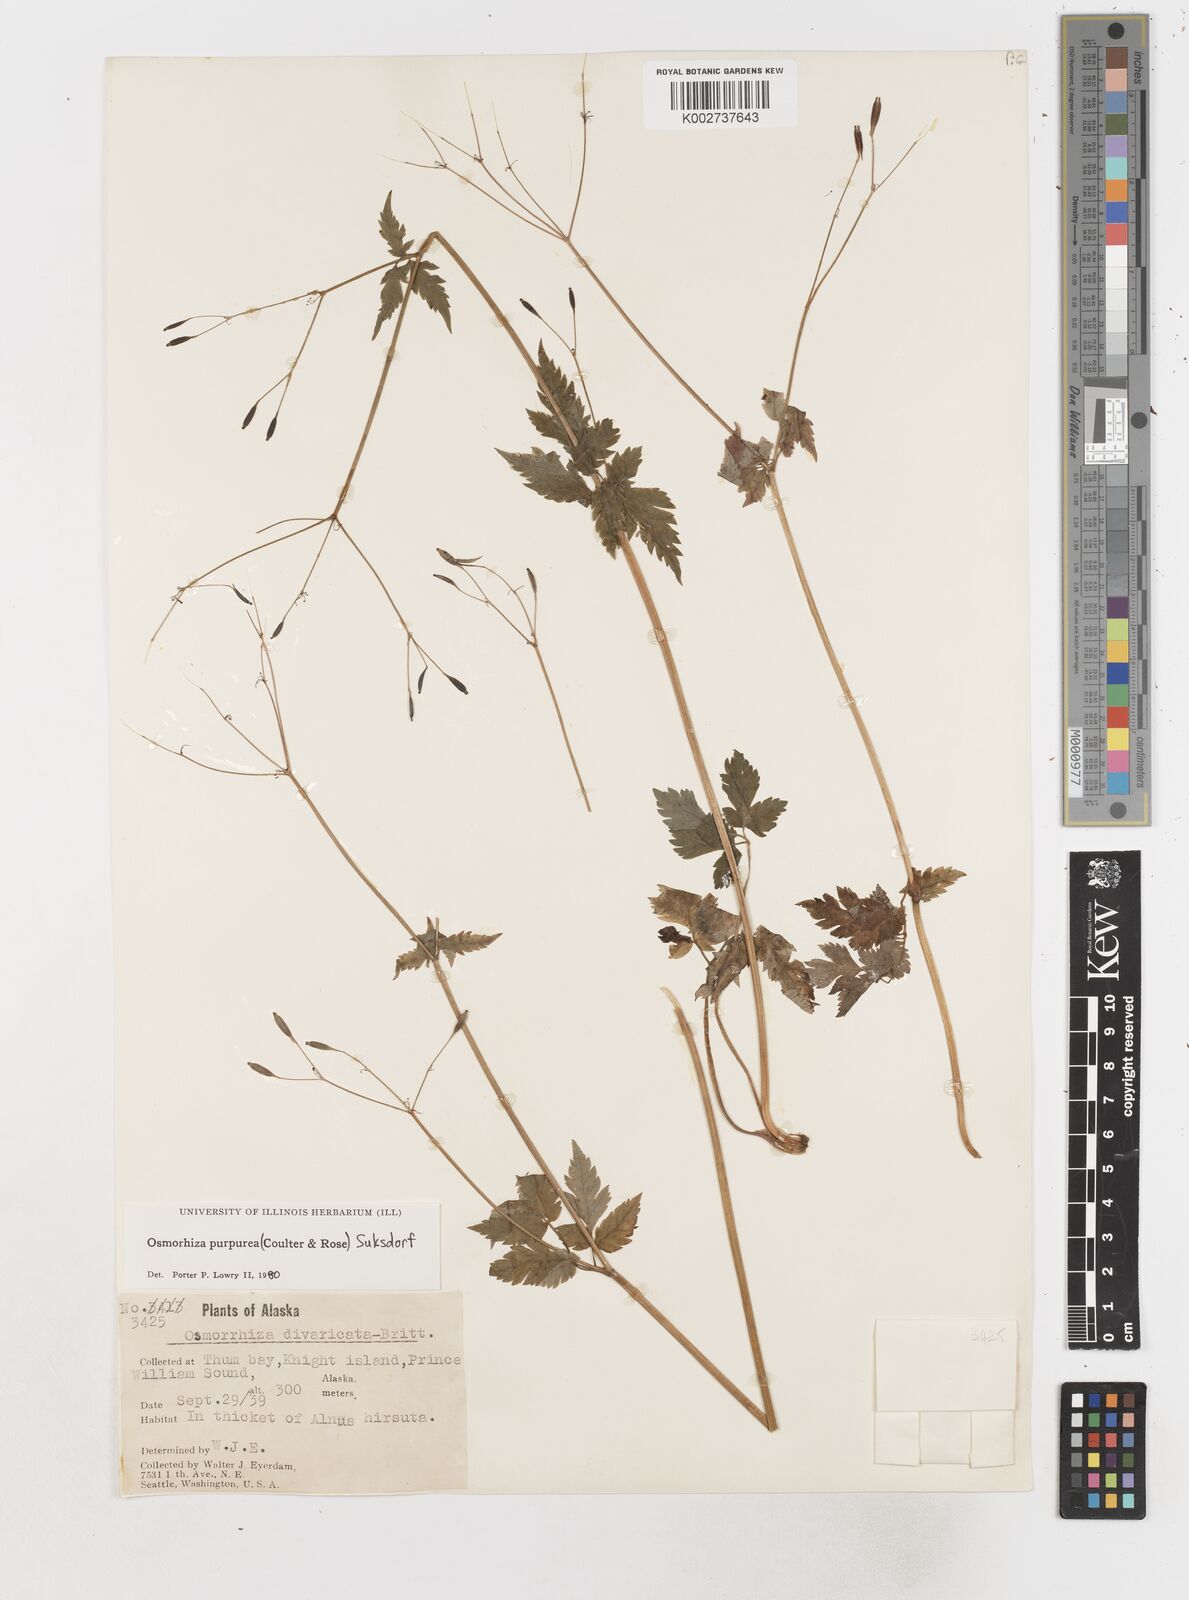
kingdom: Plantae
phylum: Tracheophyta
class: Magnoliopsida
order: Apiales
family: Apiaceae
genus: Osmorhiza
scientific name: Osmorhiza purpurea
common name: Purple sweet cicely
